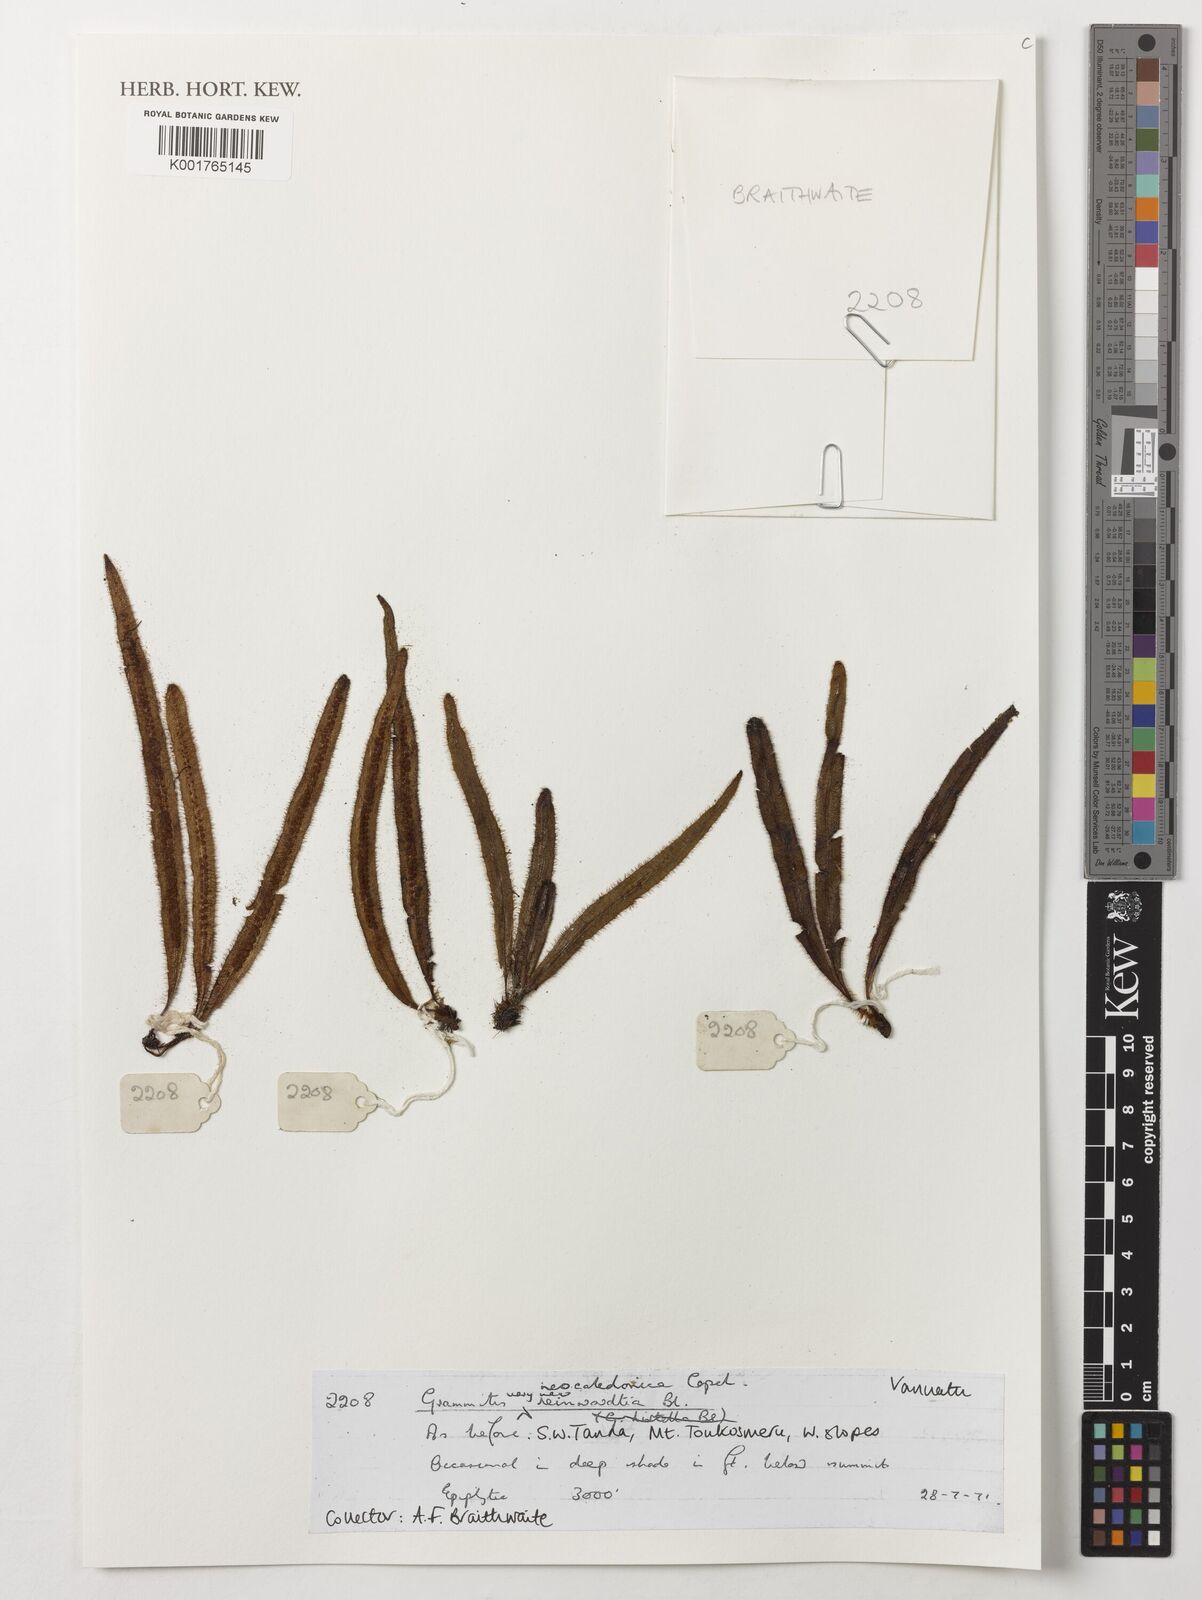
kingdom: Plantae
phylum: Tracheophyta
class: Polypodiopsida
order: Polypodiales
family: Polypodiaceae
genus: Oreogrammitis
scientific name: Oreogrammitis reinwardtii
